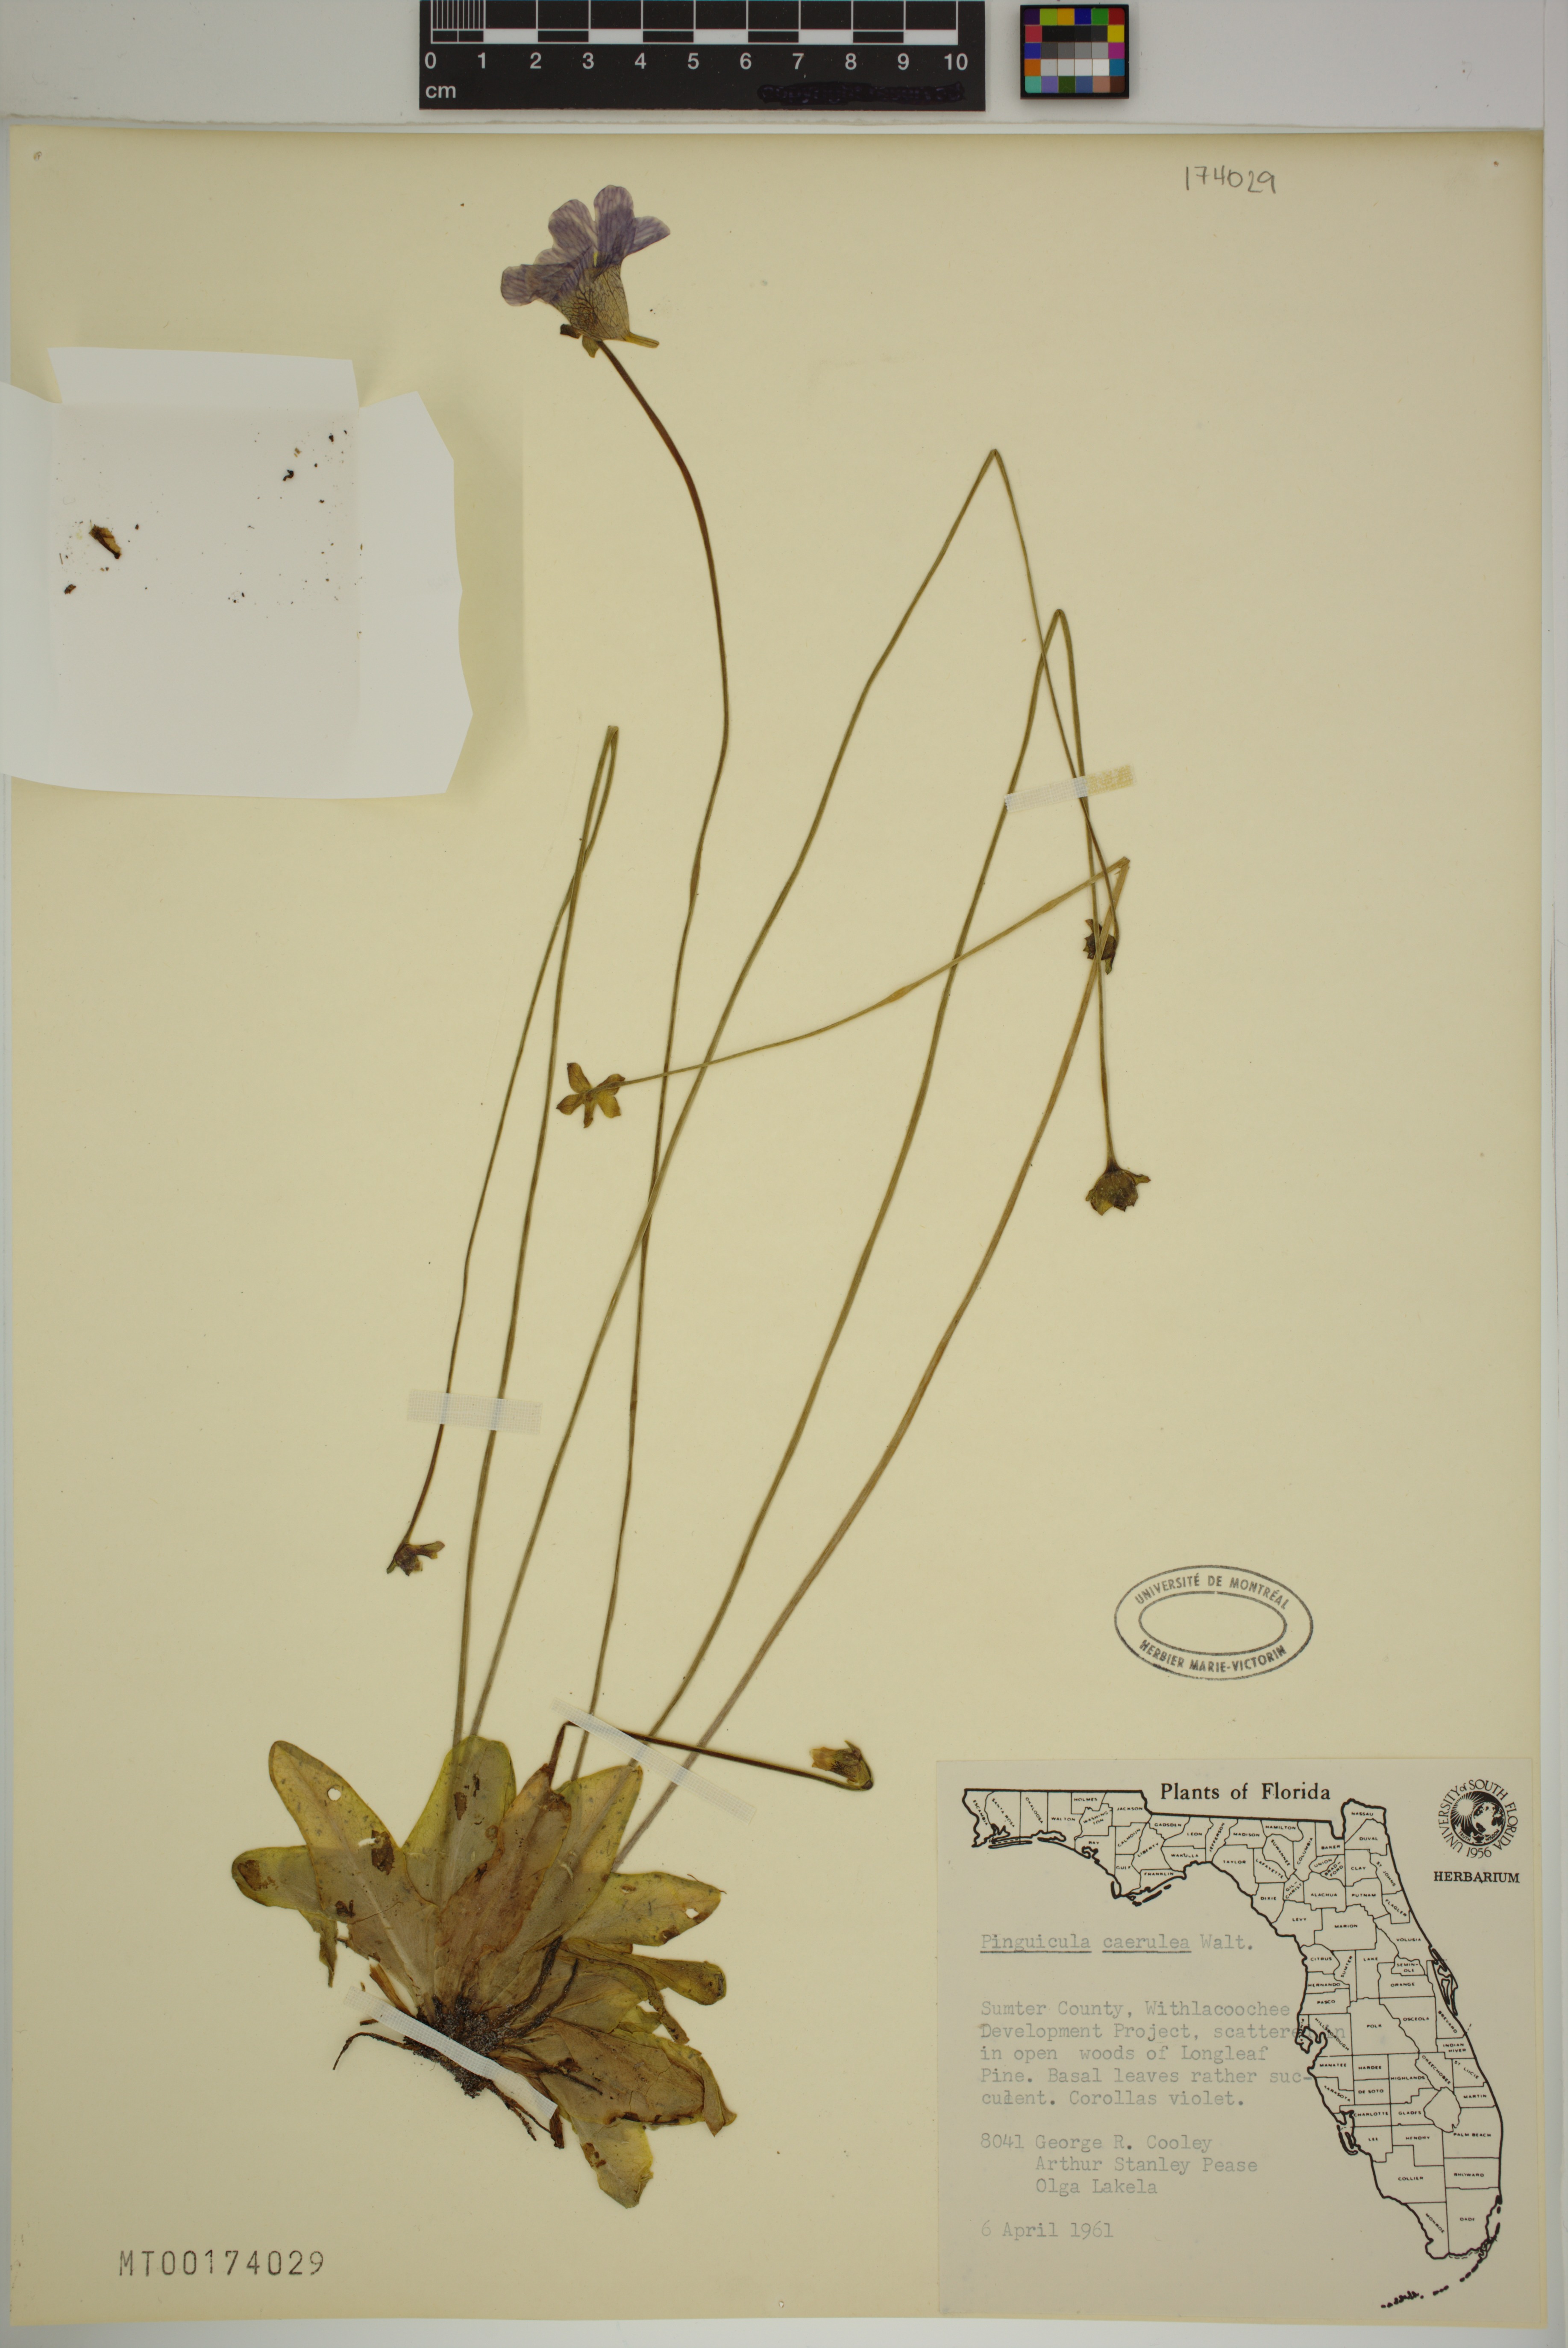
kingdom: Plantae
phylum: Tracheophyta
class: Magnoliopsida
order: Lamiales
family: Lentibulariaceae
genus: Pinguicula
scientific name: Pinguicula caerulea
